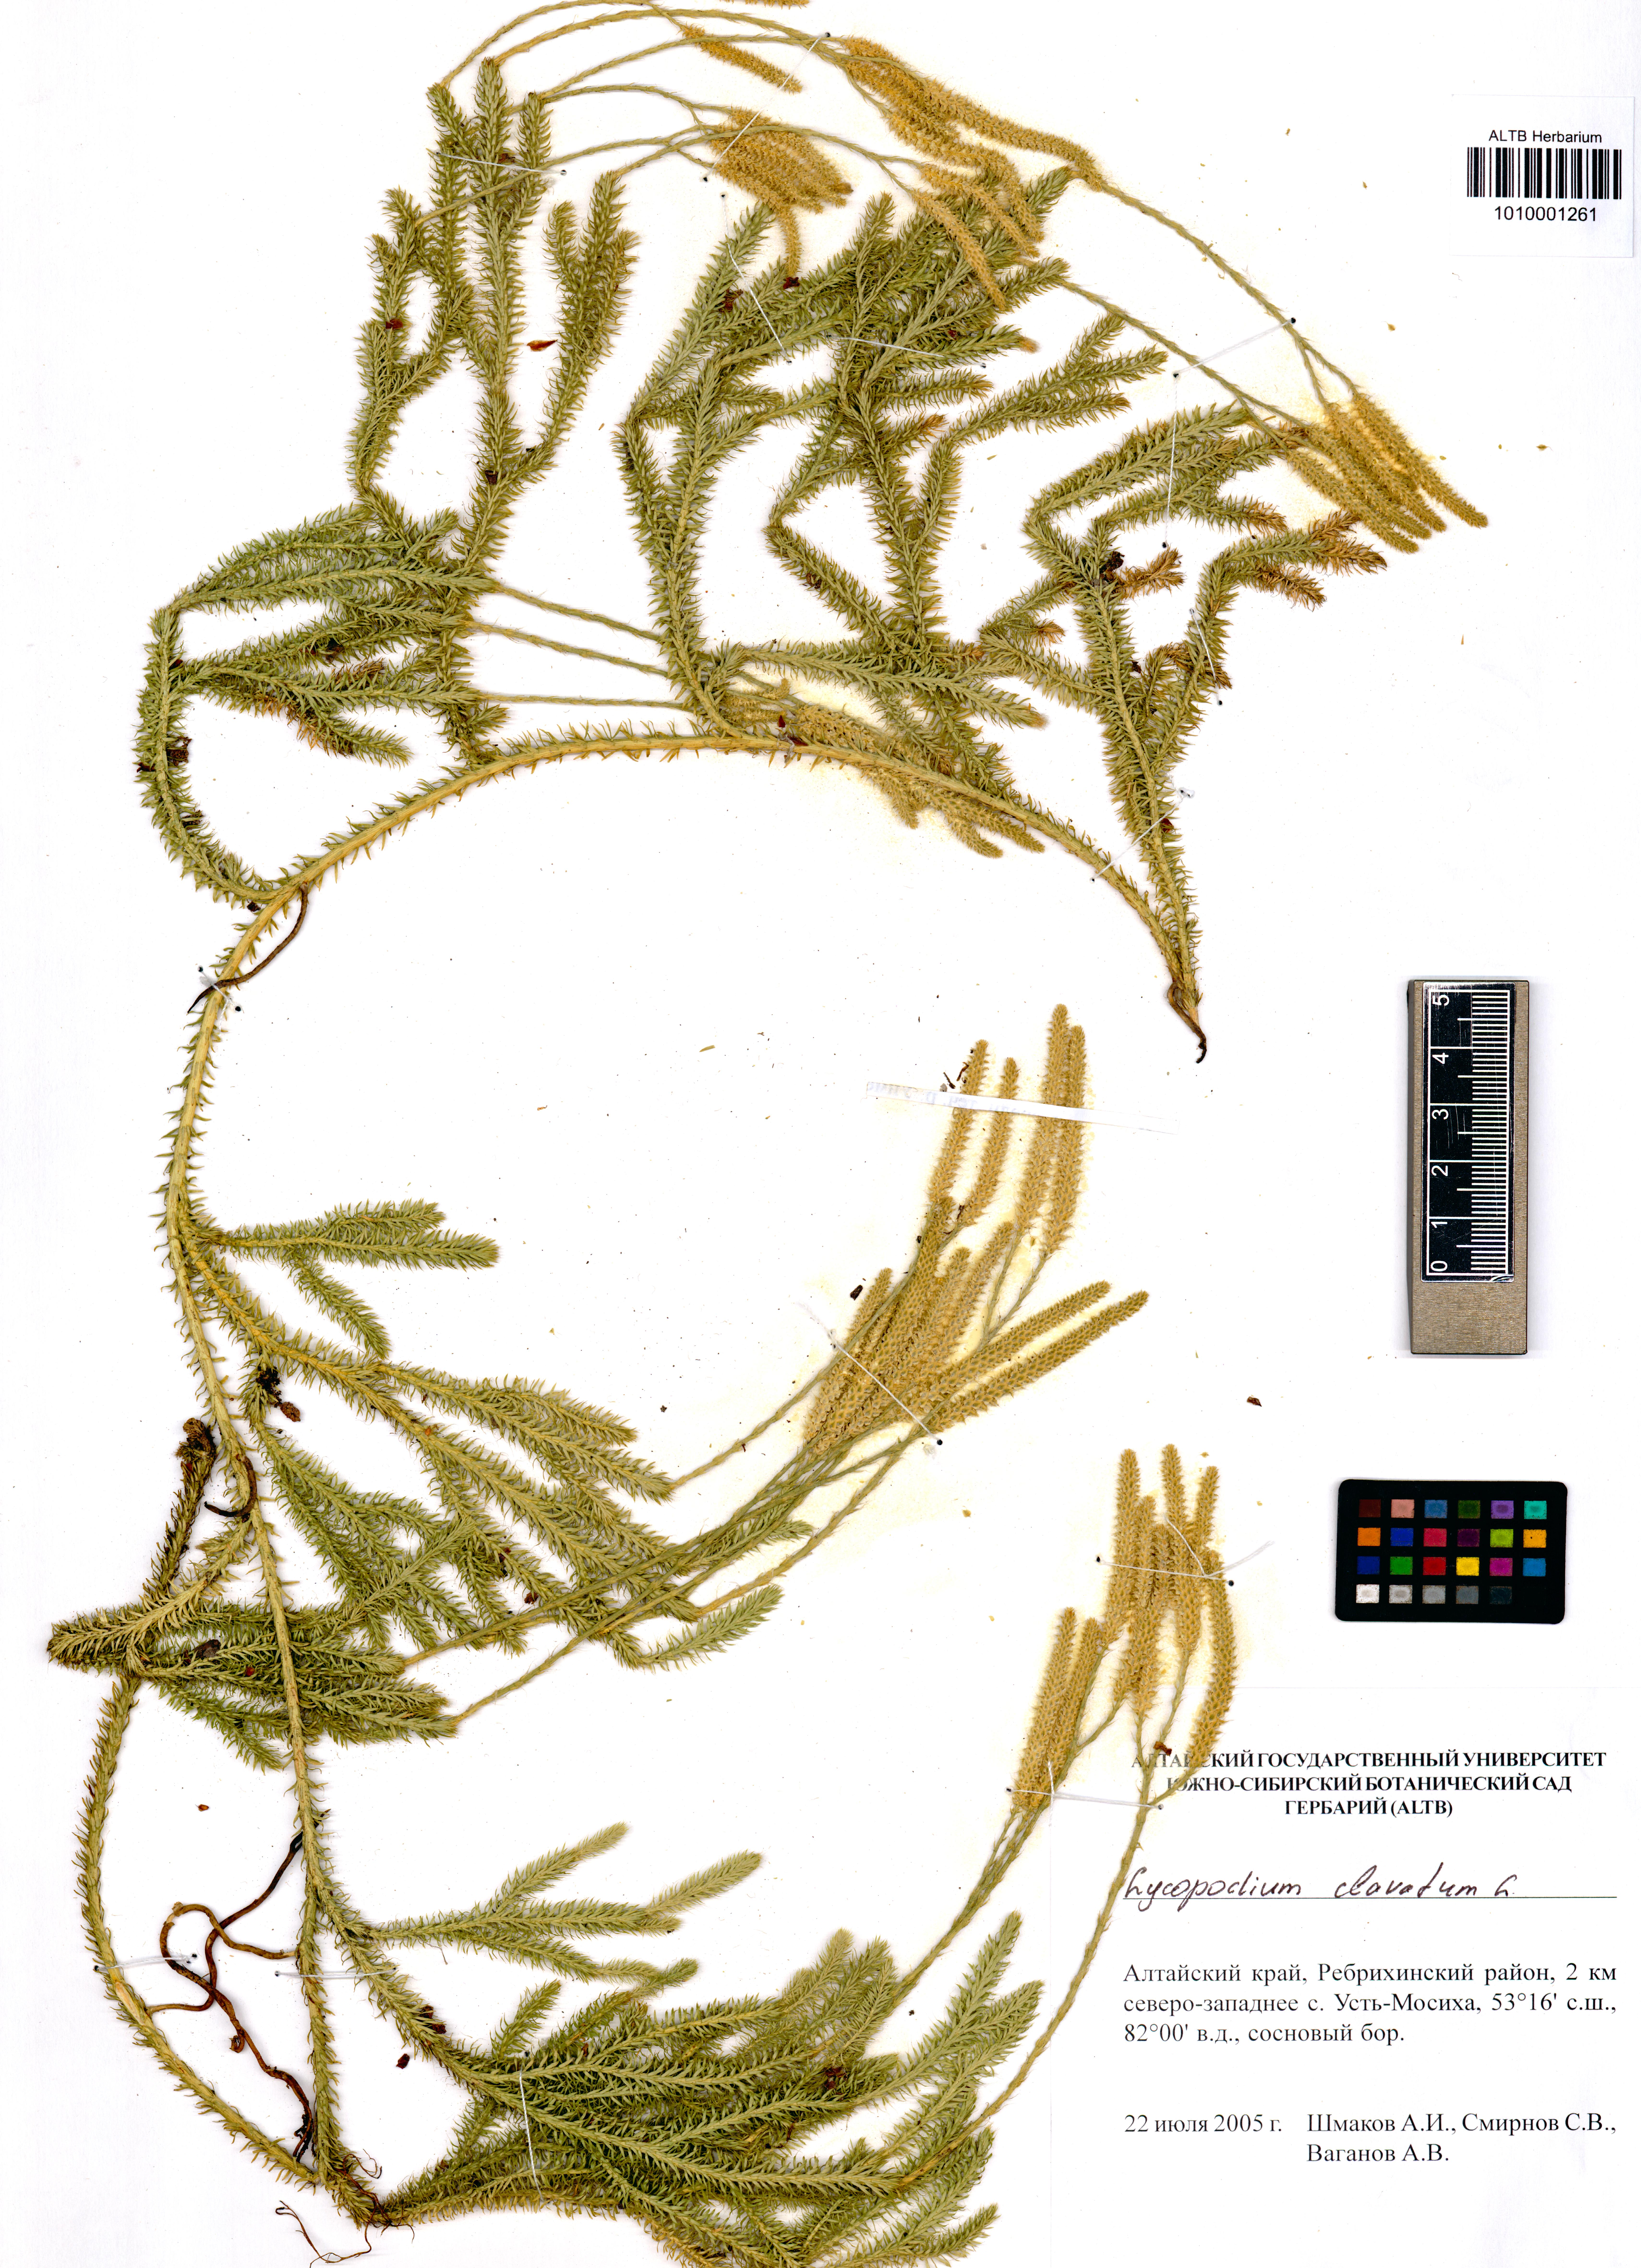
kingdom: Plantae
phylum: Tracheophyta
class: Lycopodiopsida
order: Lycopodiales
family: Lycopodiaceae
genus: Lycopodium
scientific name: Lycopodium clavatum
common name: Stag's-horn clubmoss
